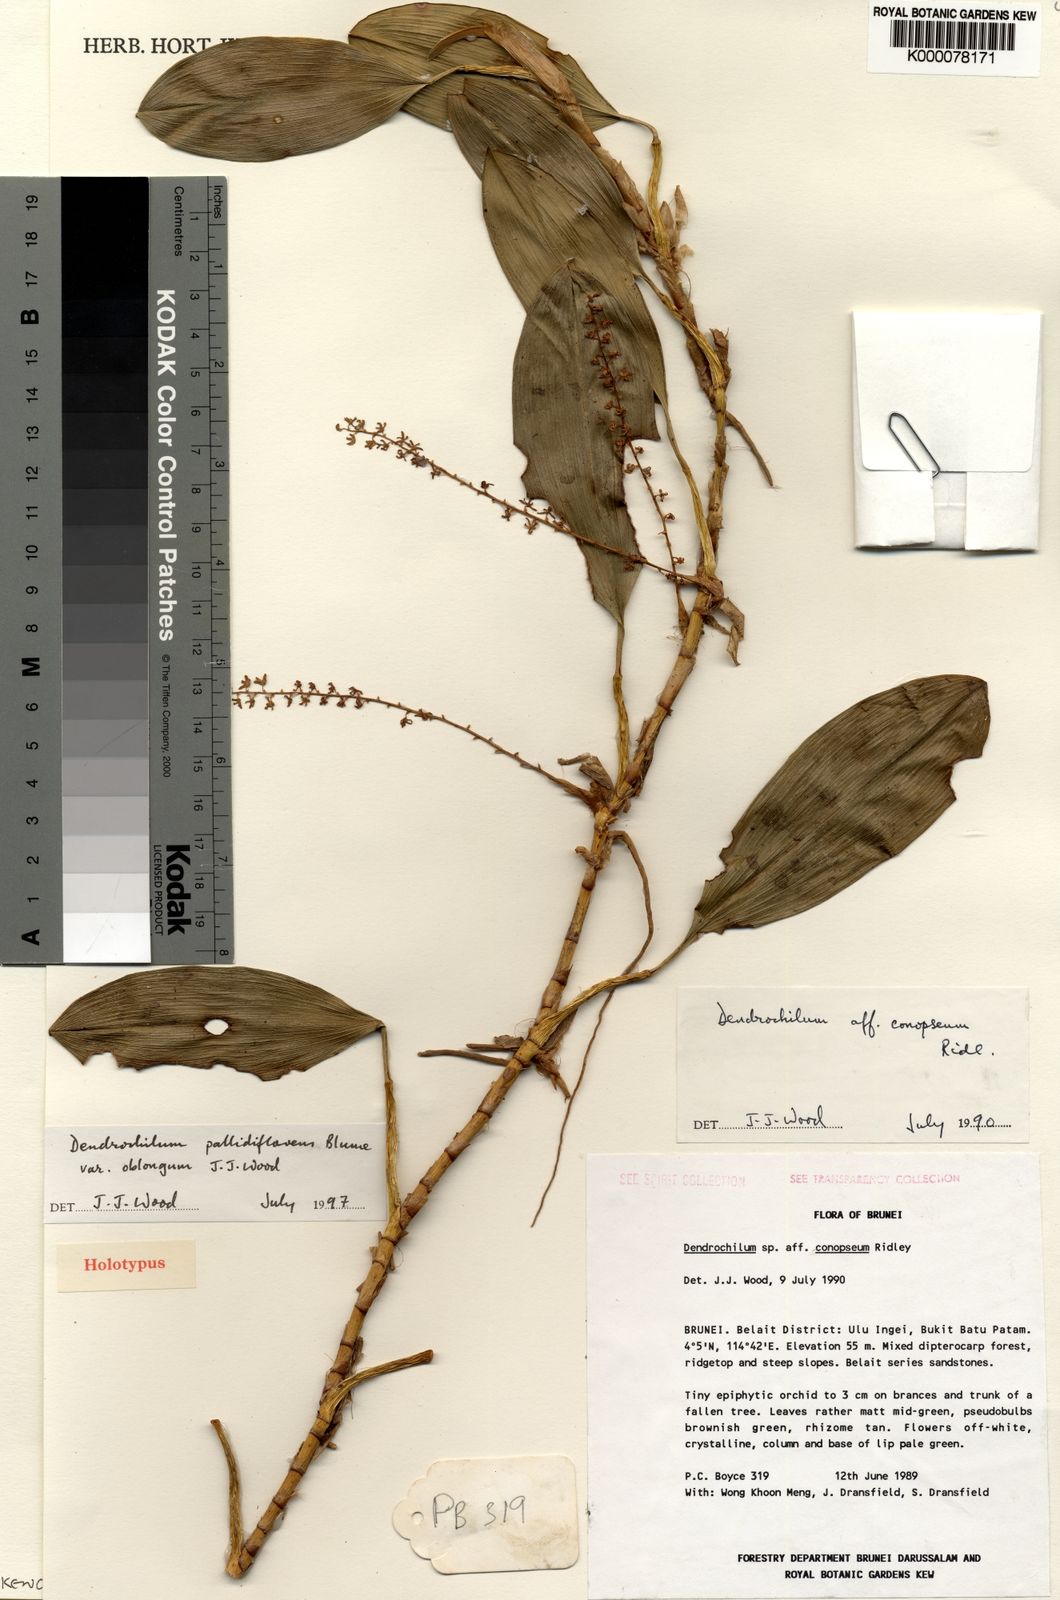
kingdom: Plantae
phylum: Tracheophyta
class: Liliopsida
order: Asparagales
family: Orchidaceae
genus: Coelogyne
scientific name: Coelogyne pallidiflavens
